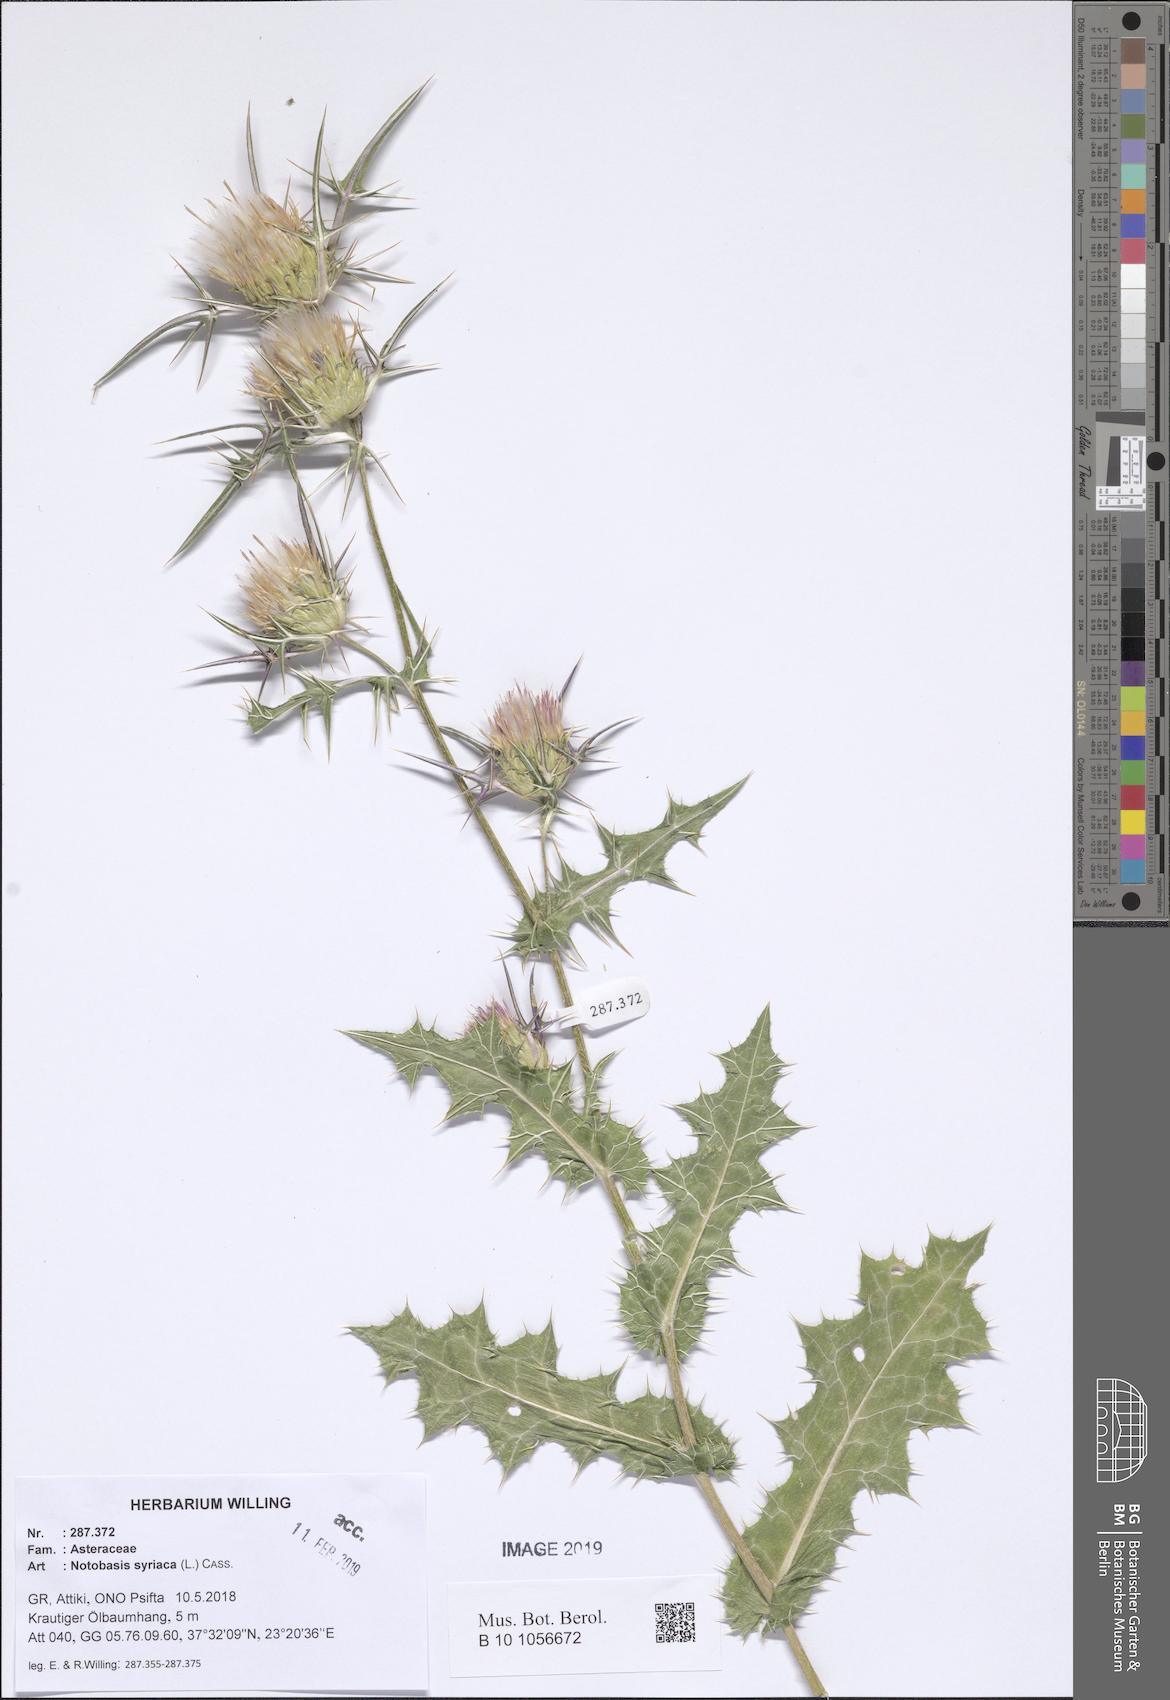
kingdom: Plantae
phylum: Tracheophyta
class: Magnoliopsida
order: Asterales
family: Asteraceae
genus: Notobasis
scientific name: Notobasis syriaca
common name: Syrian thistle
